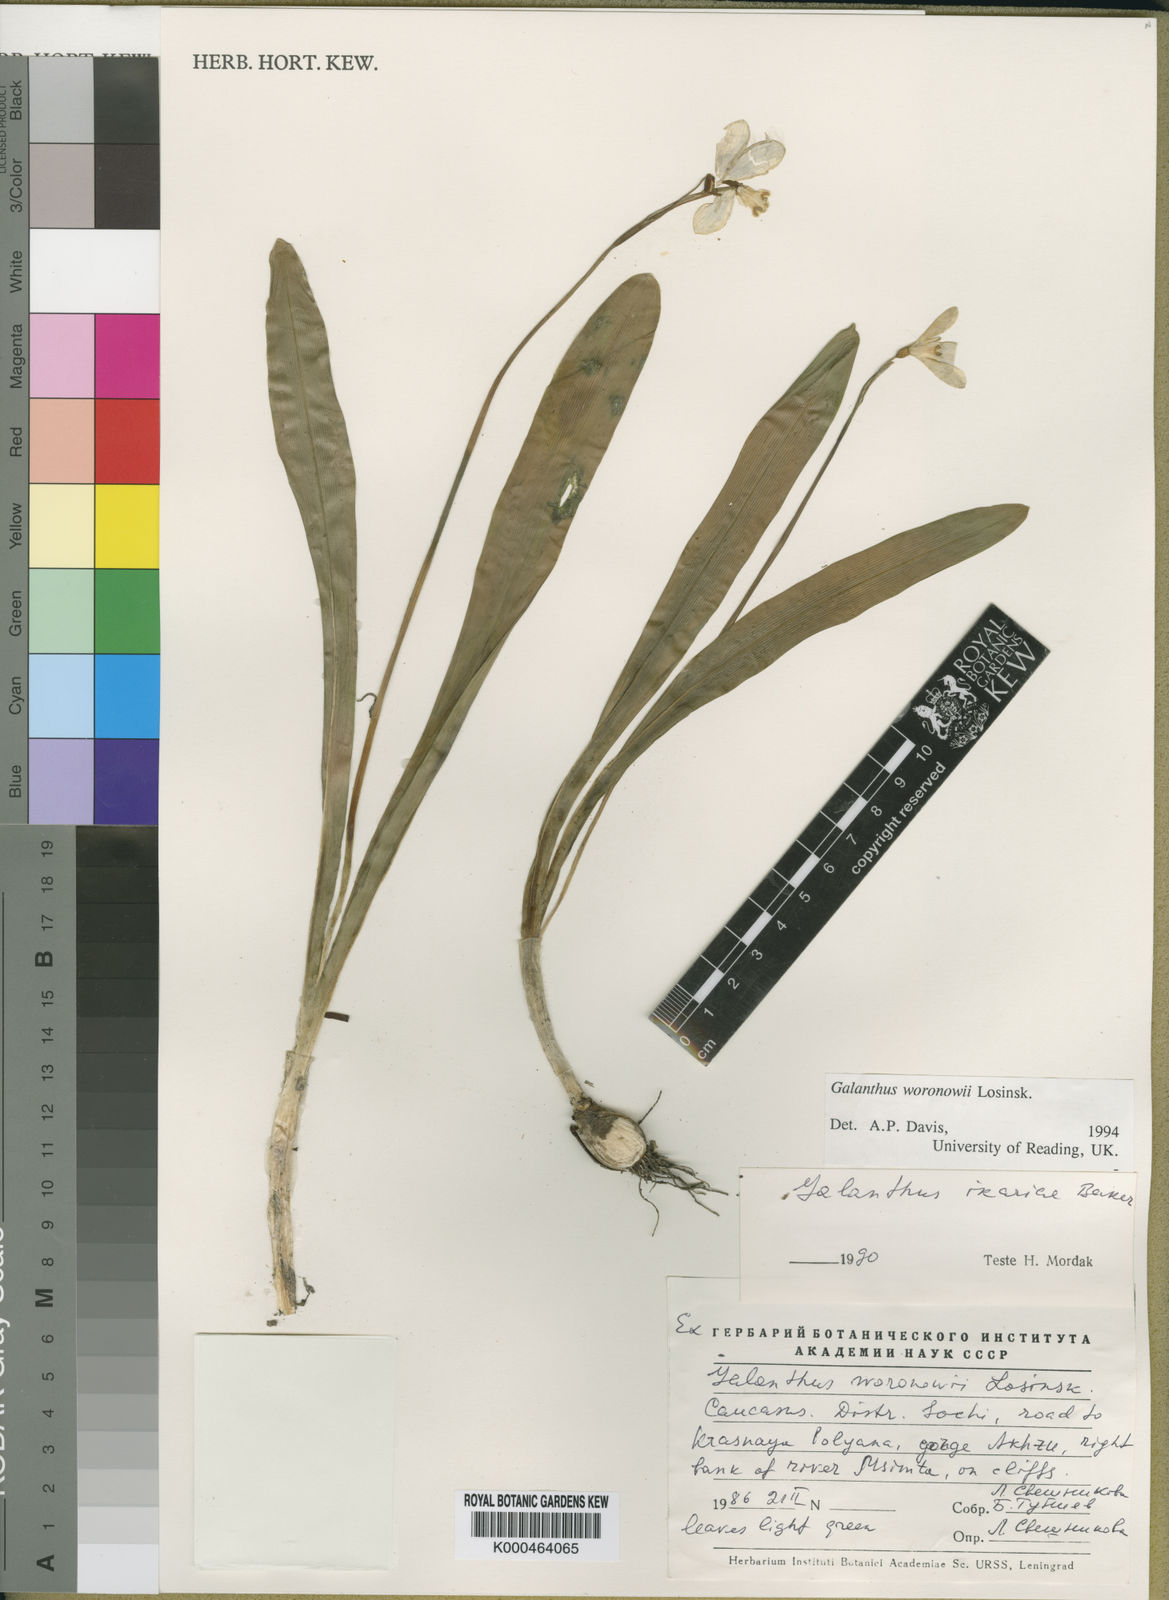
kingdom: Plantae
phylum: Tracheophyta
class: Liliopsida
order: Asparagales
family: Amaryllidaceae
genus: Galanthus
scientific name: Galanthus woronowii
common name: Green snowdrop
